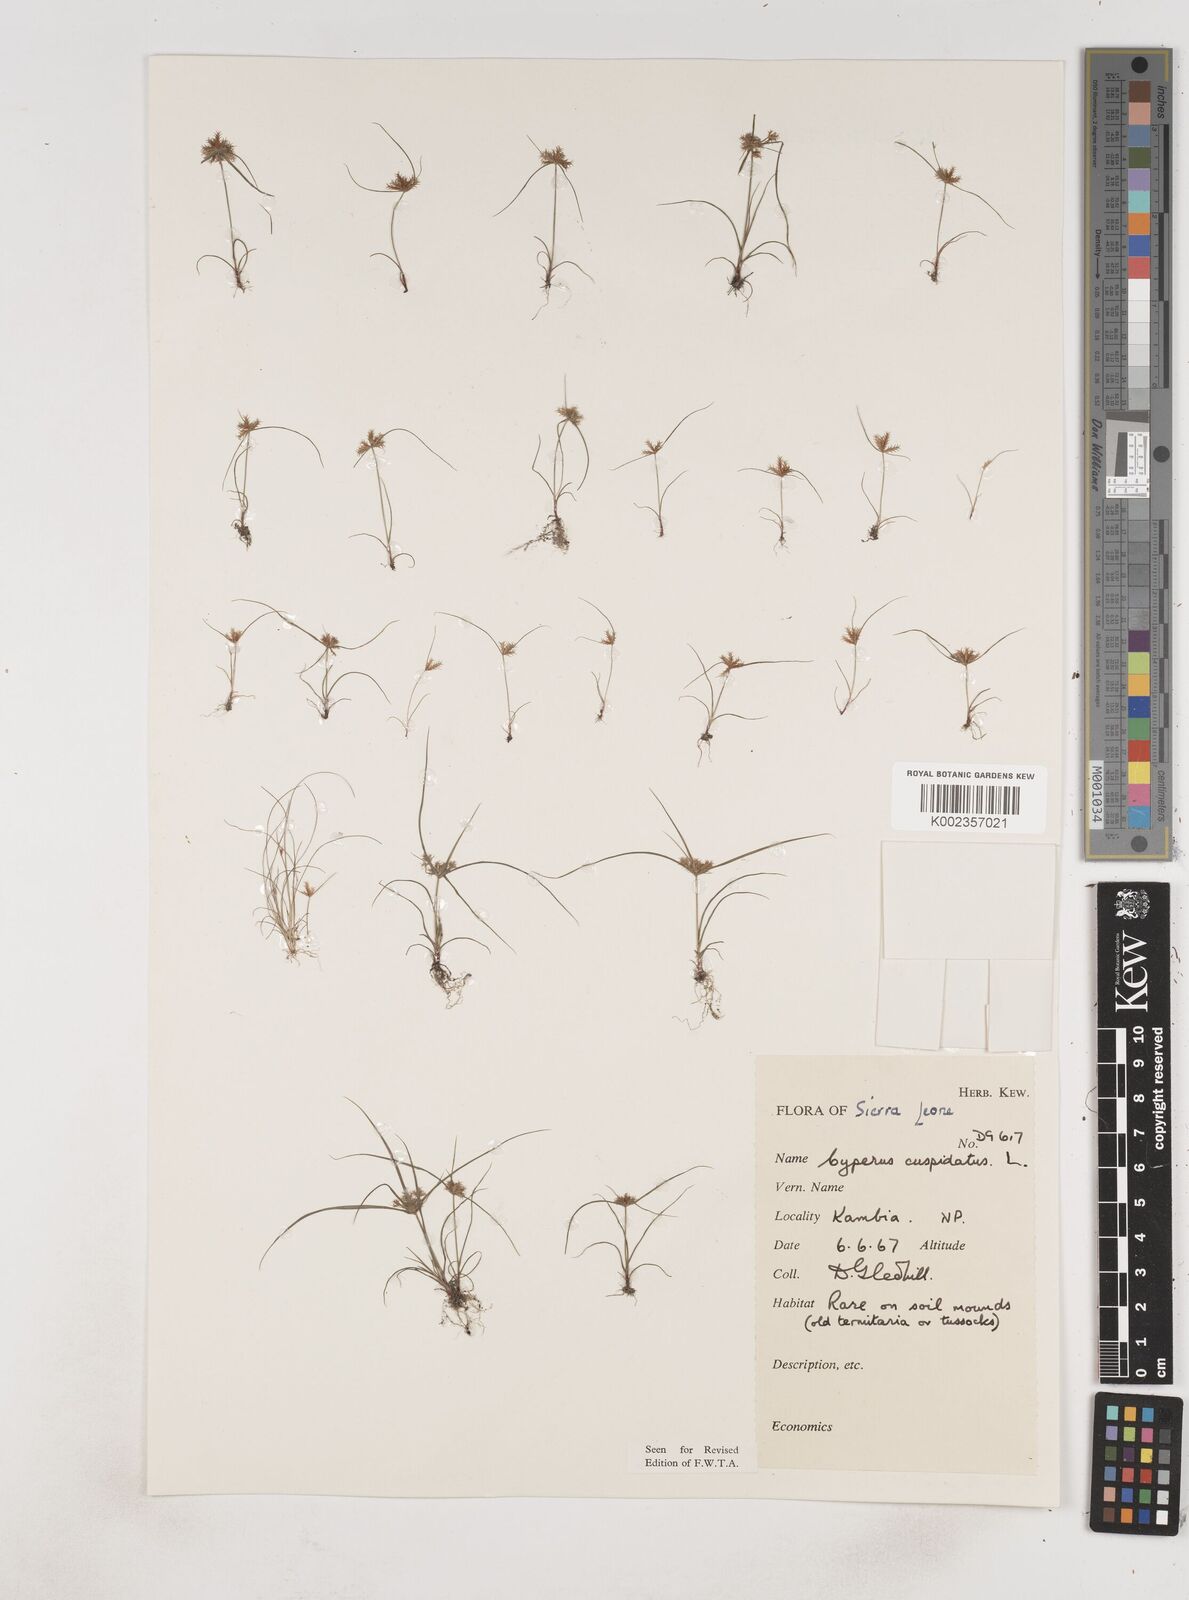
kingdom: Plantae
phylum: Tracheophyta
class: Liliopsida
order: Poales
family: Cyperaceae
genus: Cyperus
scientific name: Cyperus
